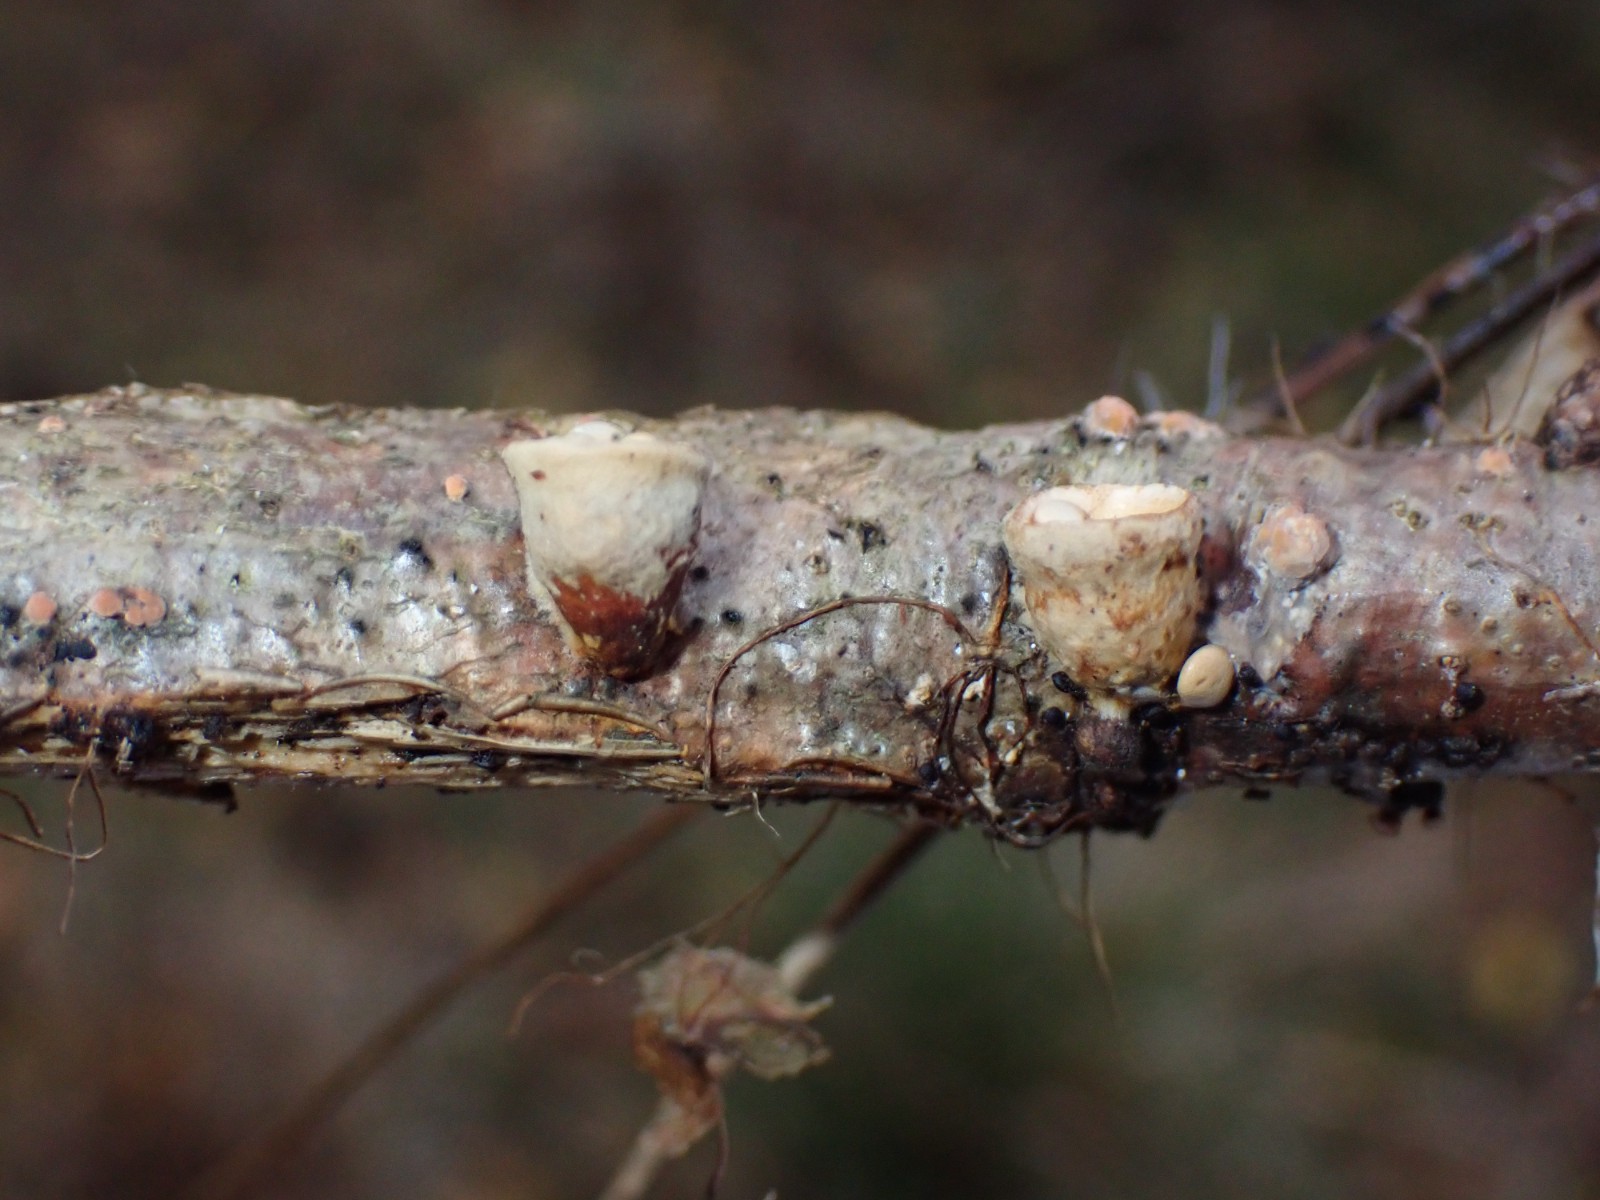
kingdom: Fungi
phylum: Basidiomycota
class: Agaricomycetes
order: Agaricales
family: Nidulariaceae
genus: Crucibulum
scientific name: Crucibulum crucibuliforme
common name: krukkesvamp
